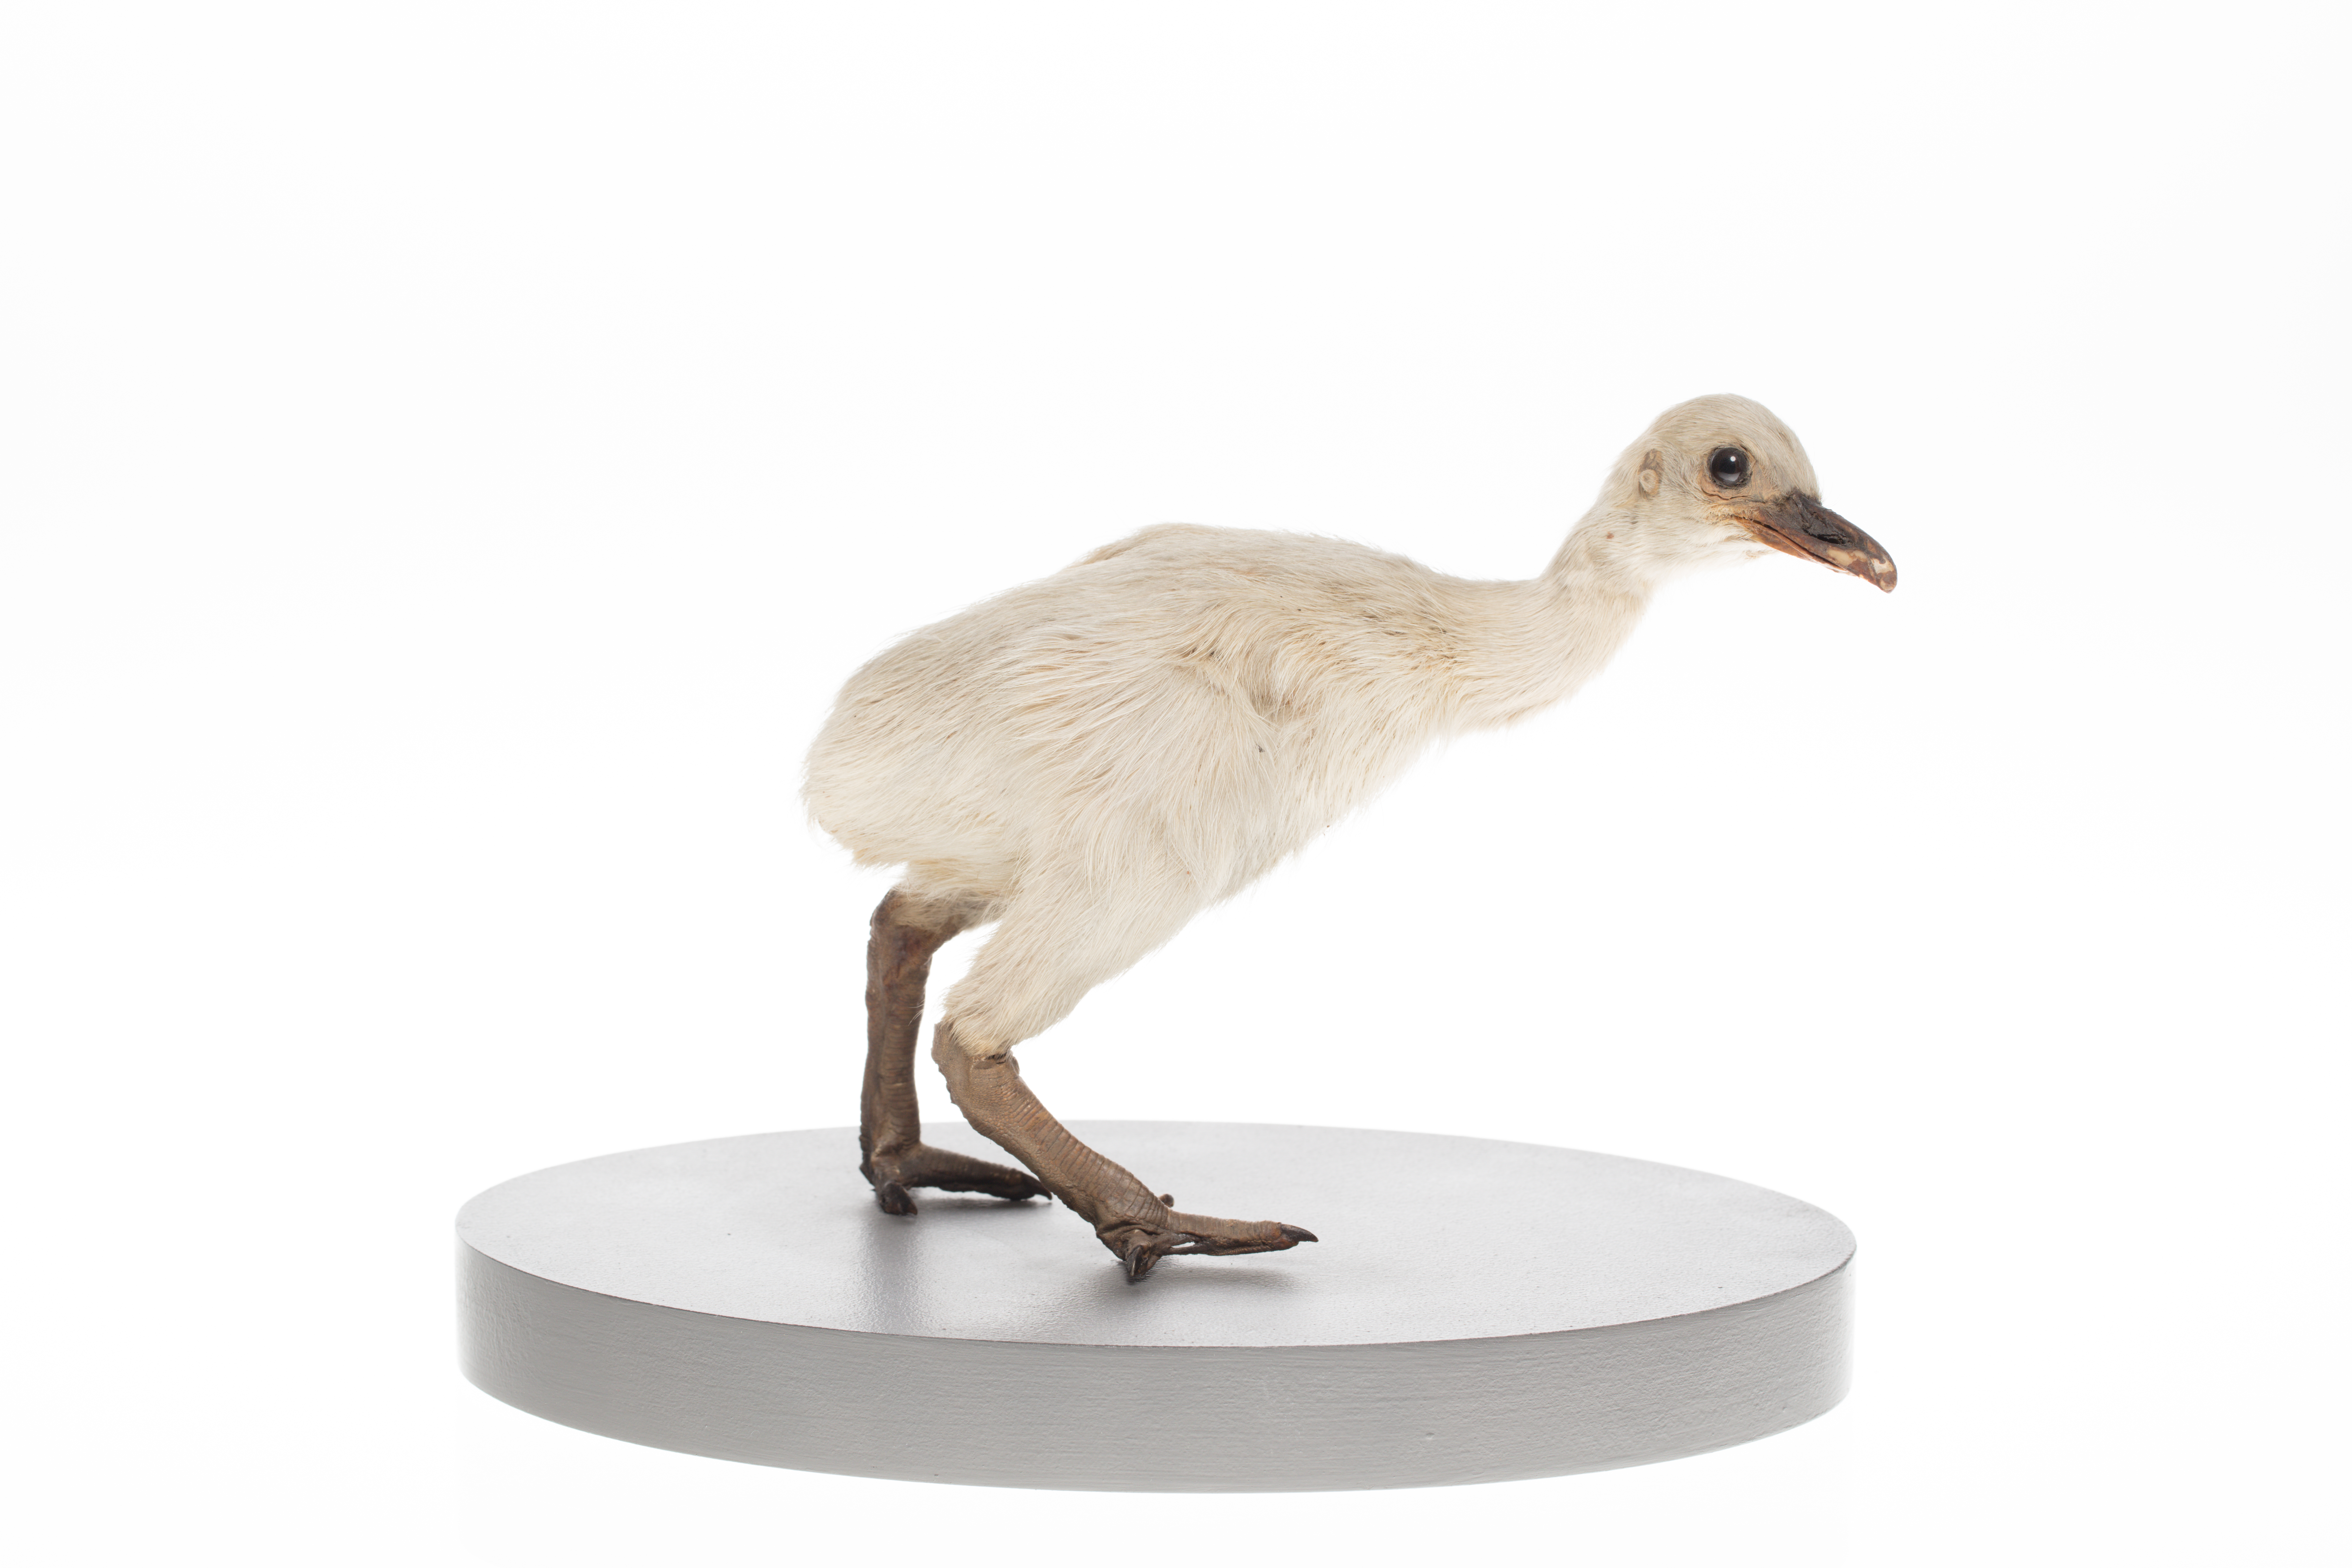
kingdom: Animalia
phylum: Chordata
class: Aves
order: Rheiformes
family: Rheidae
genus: Rhea
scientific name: Rhea americana
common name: Greater rhea
